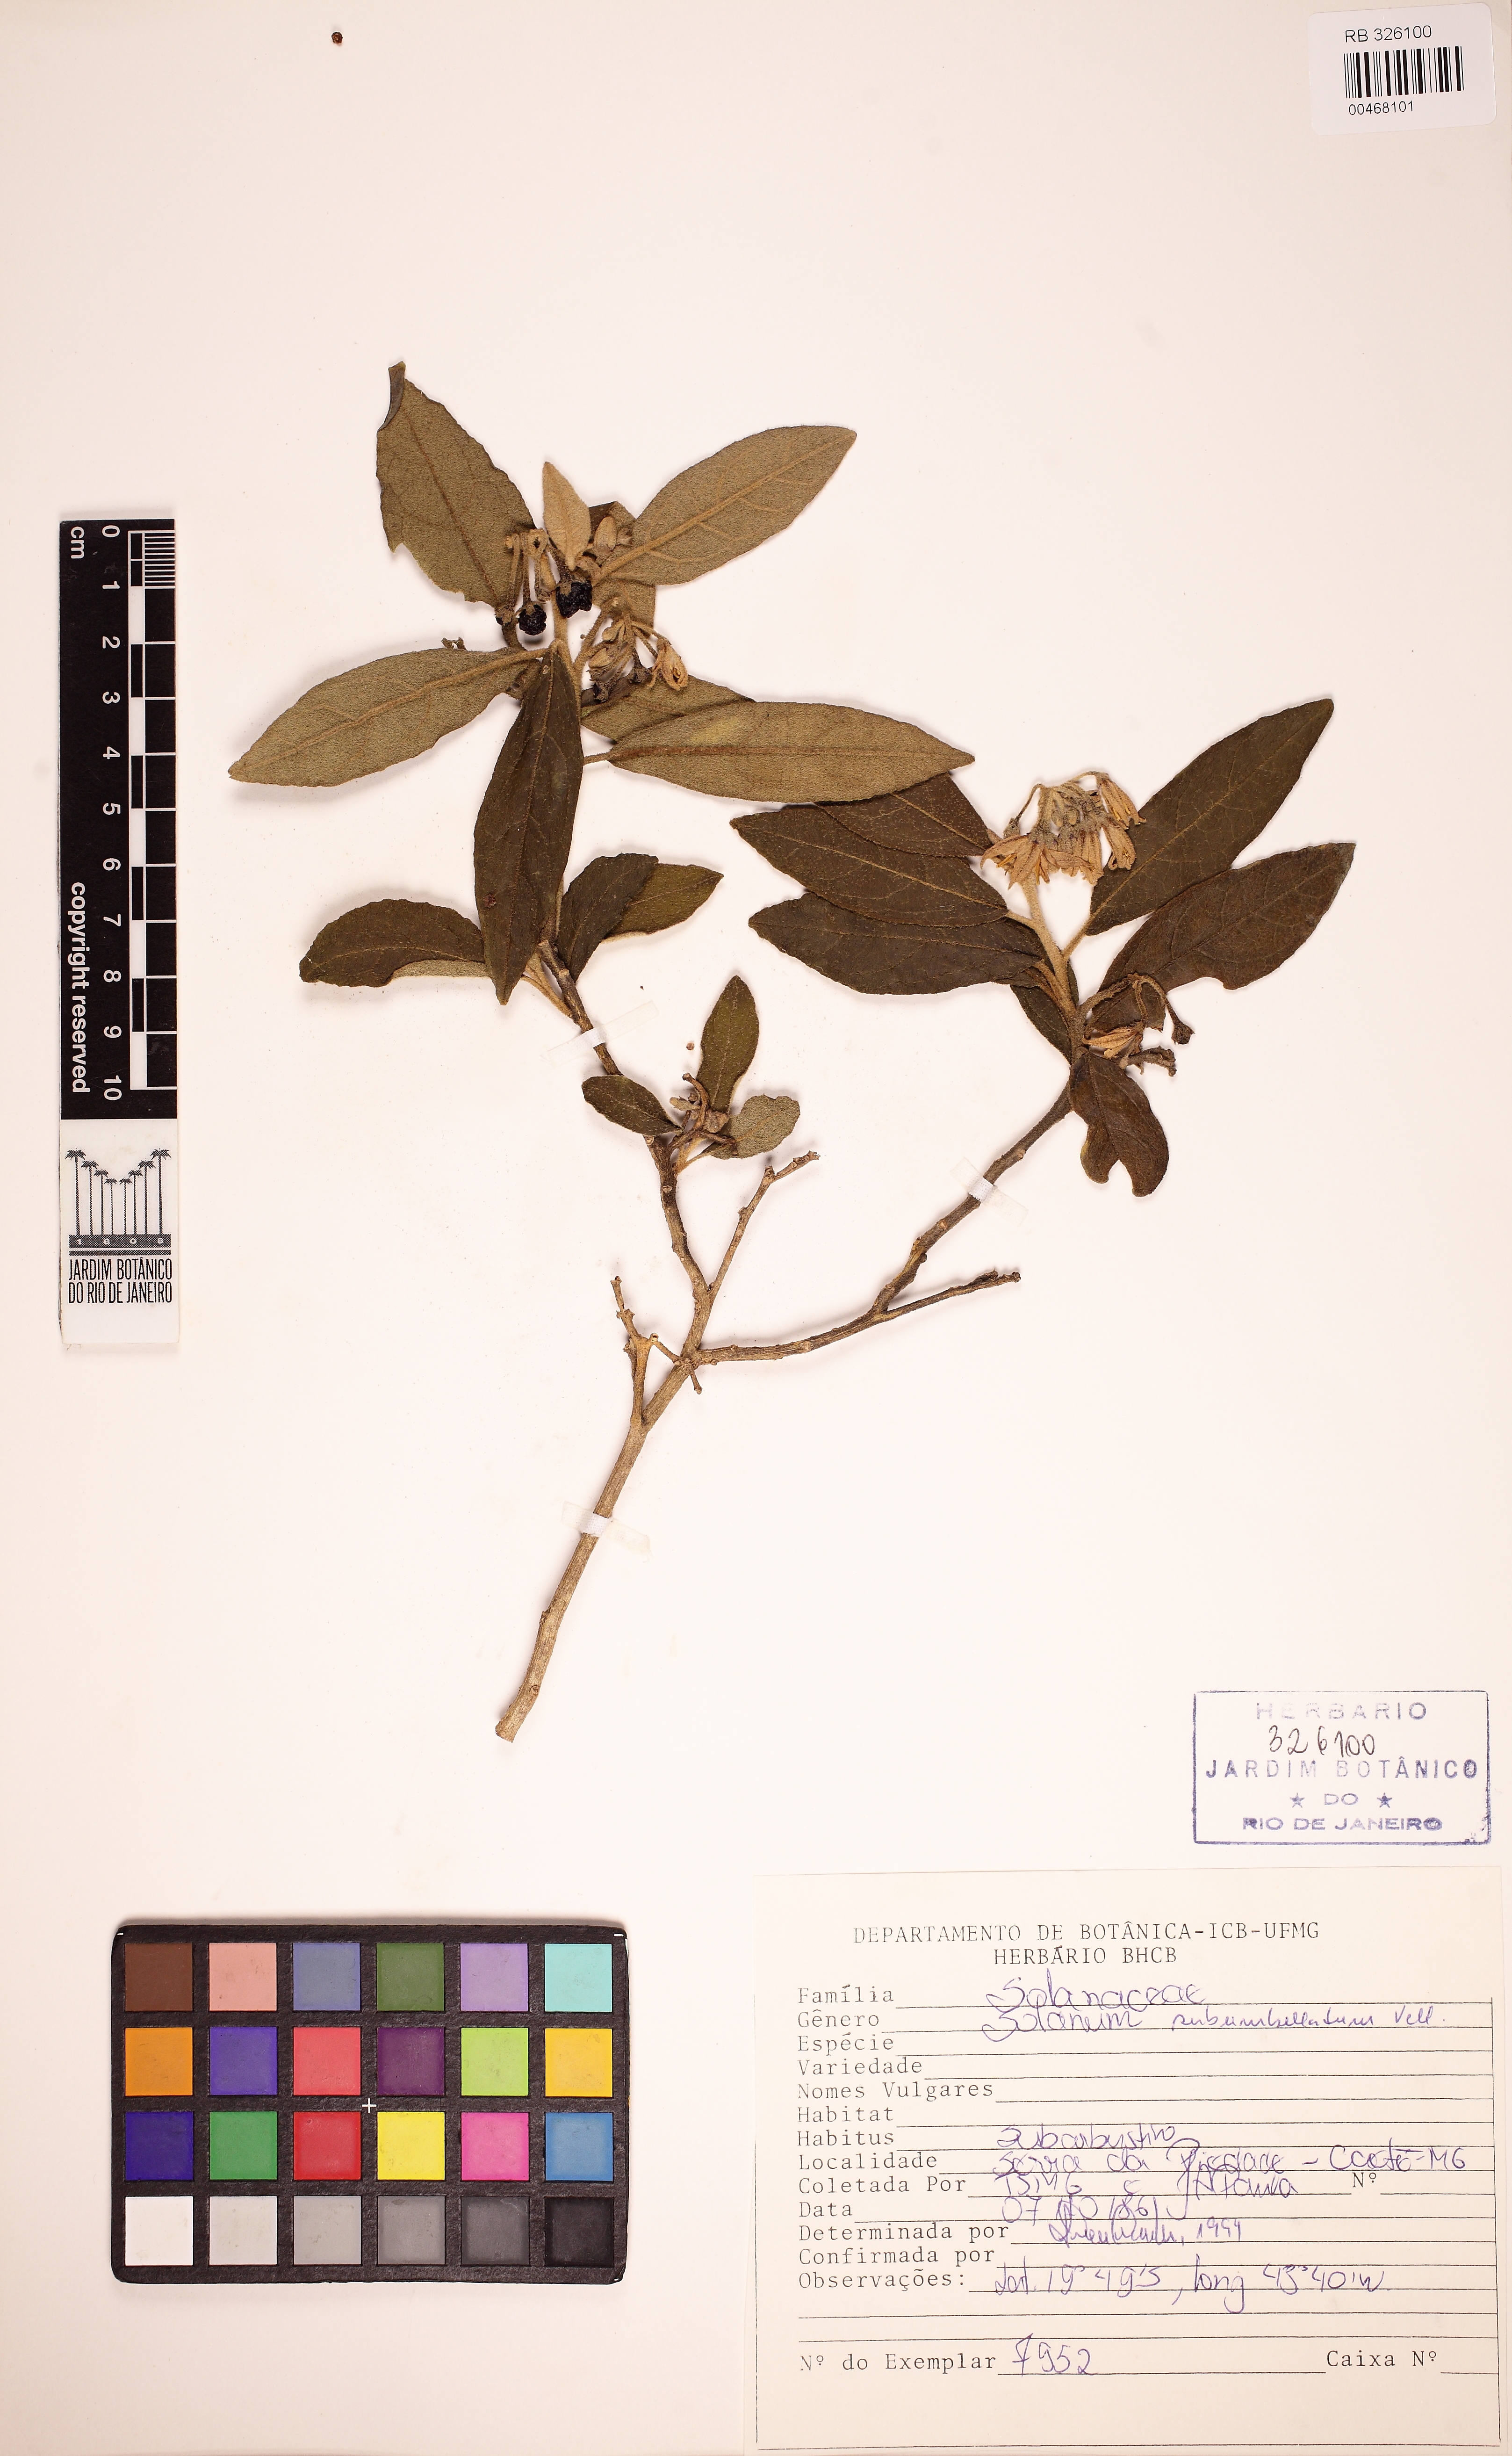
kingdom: Plantae
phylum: Tracheophyta
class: Magnoliopsida
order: Solanales
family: Solanaceae
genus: Solanum
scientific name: Solanum subumbellatum
